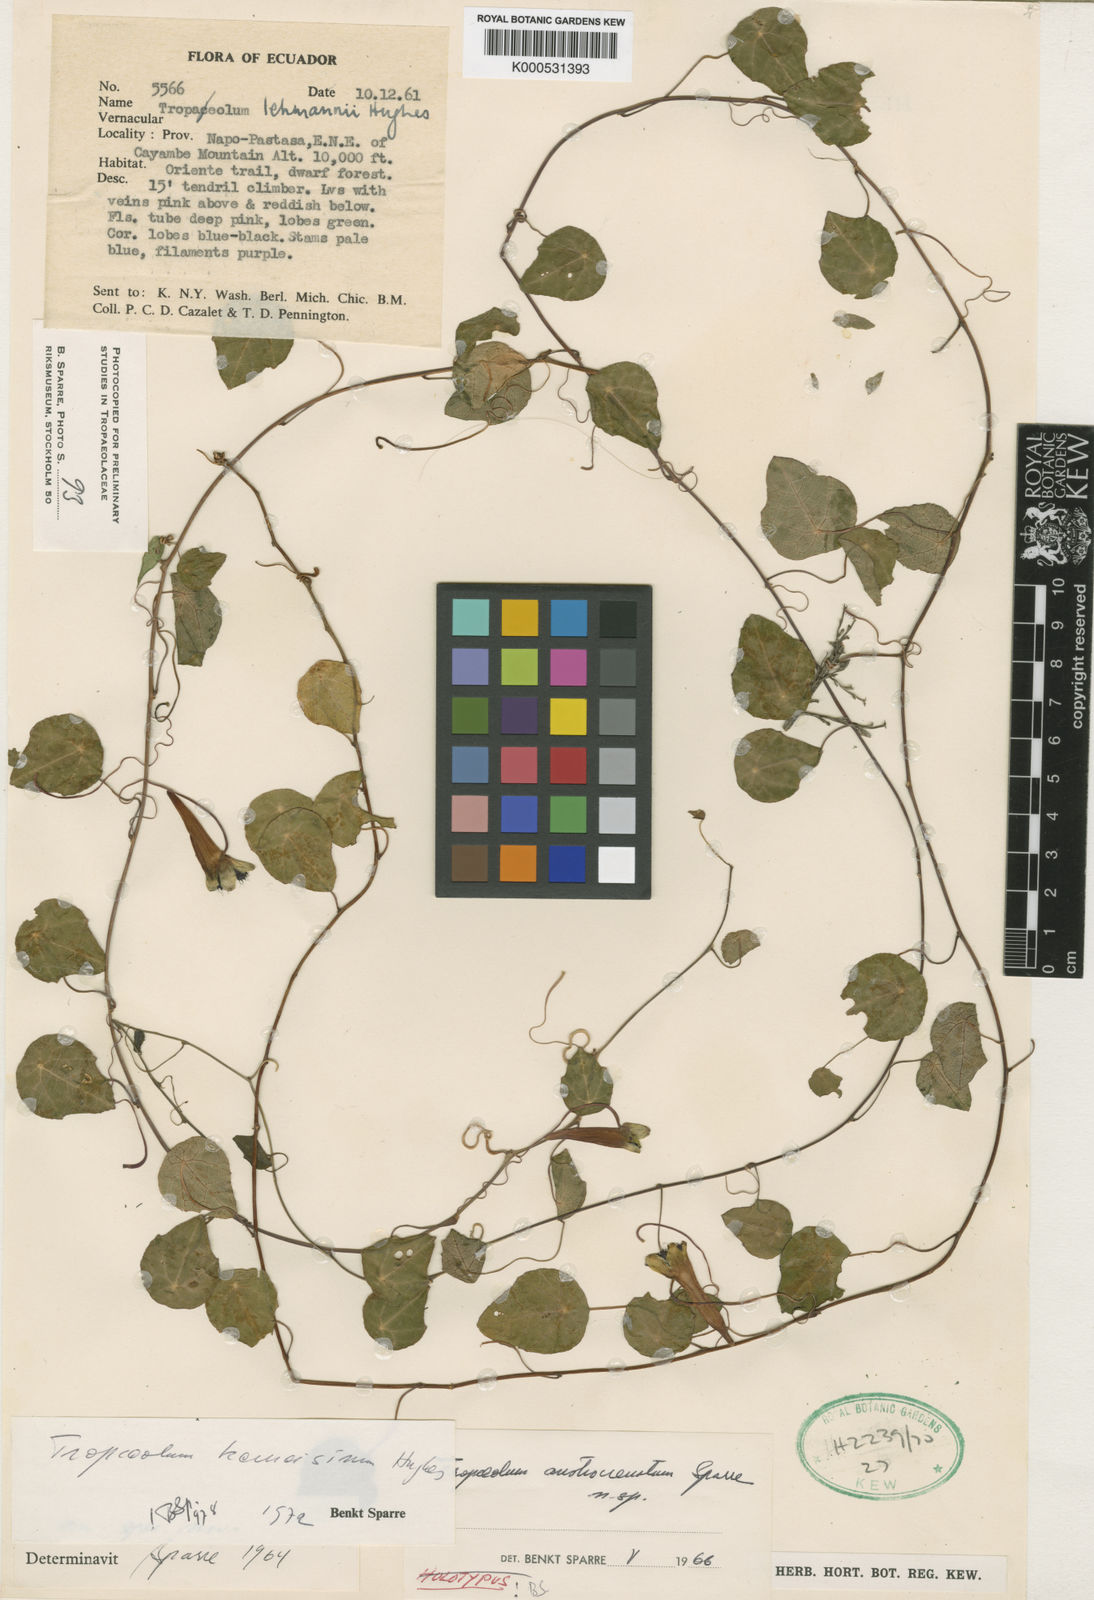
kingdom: Plantae
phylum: Tracheophyta
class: Magnoliopsida
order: Brassicales
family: Tropaeolaceae
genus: Tropaeolum
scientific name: Tropaeolum kerneisinum
